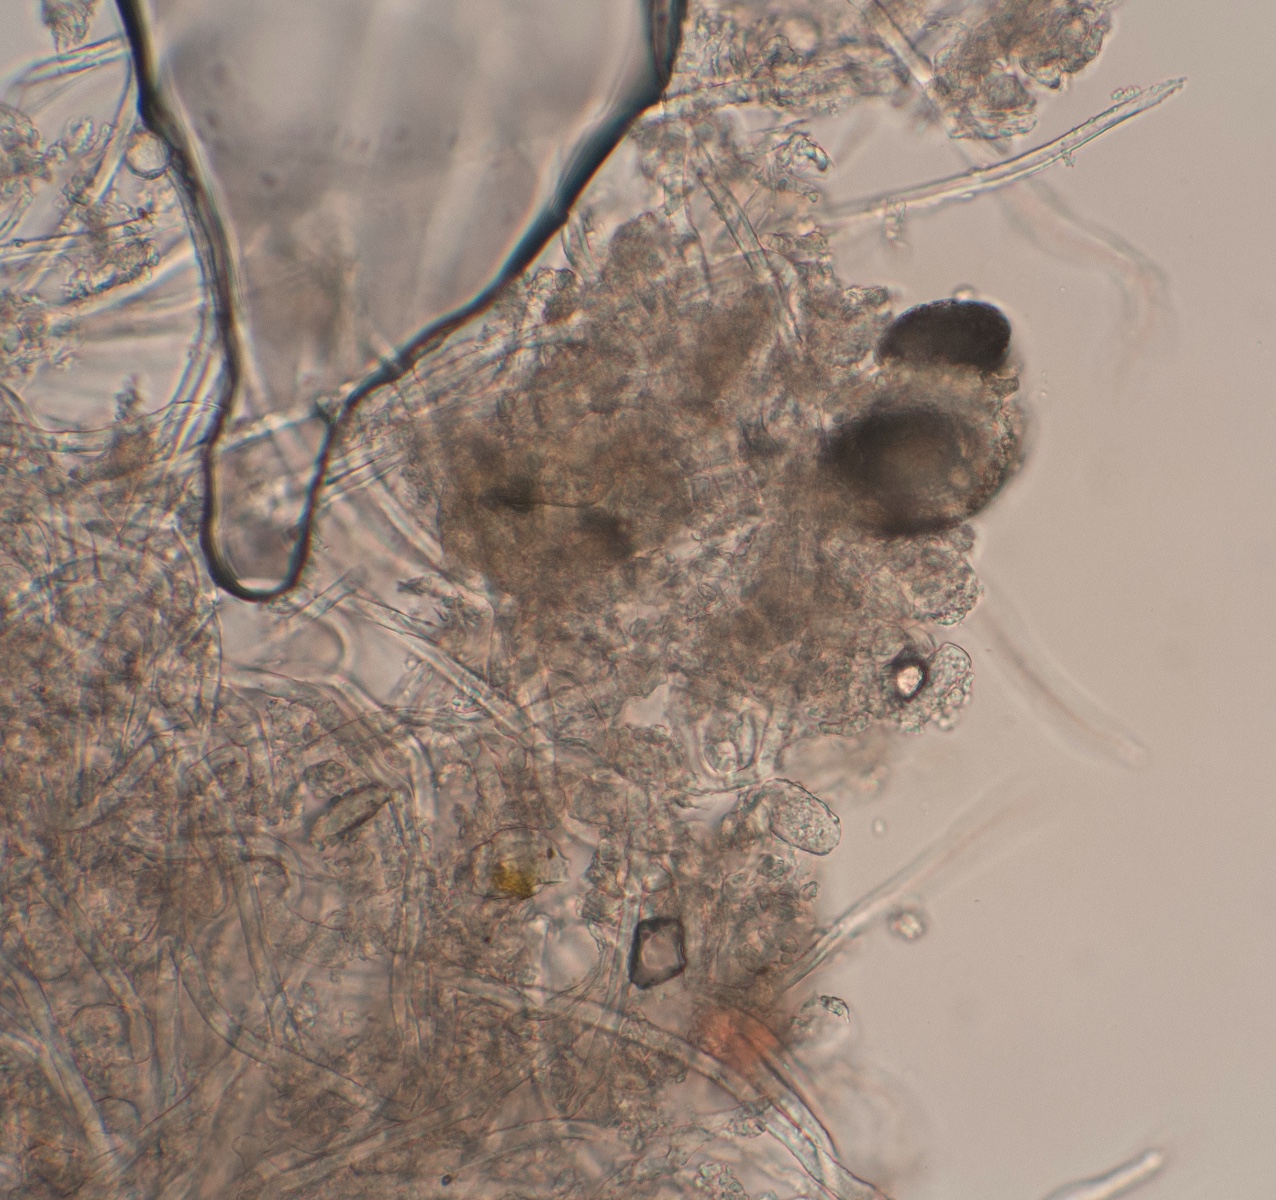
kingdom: Fungi
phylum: Ascomycota
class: Leotiomycetes
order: Helotiales
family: Erysiphaceae
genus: Podosphaera
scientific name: Podosphaera pannosa
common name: Rose mildew
